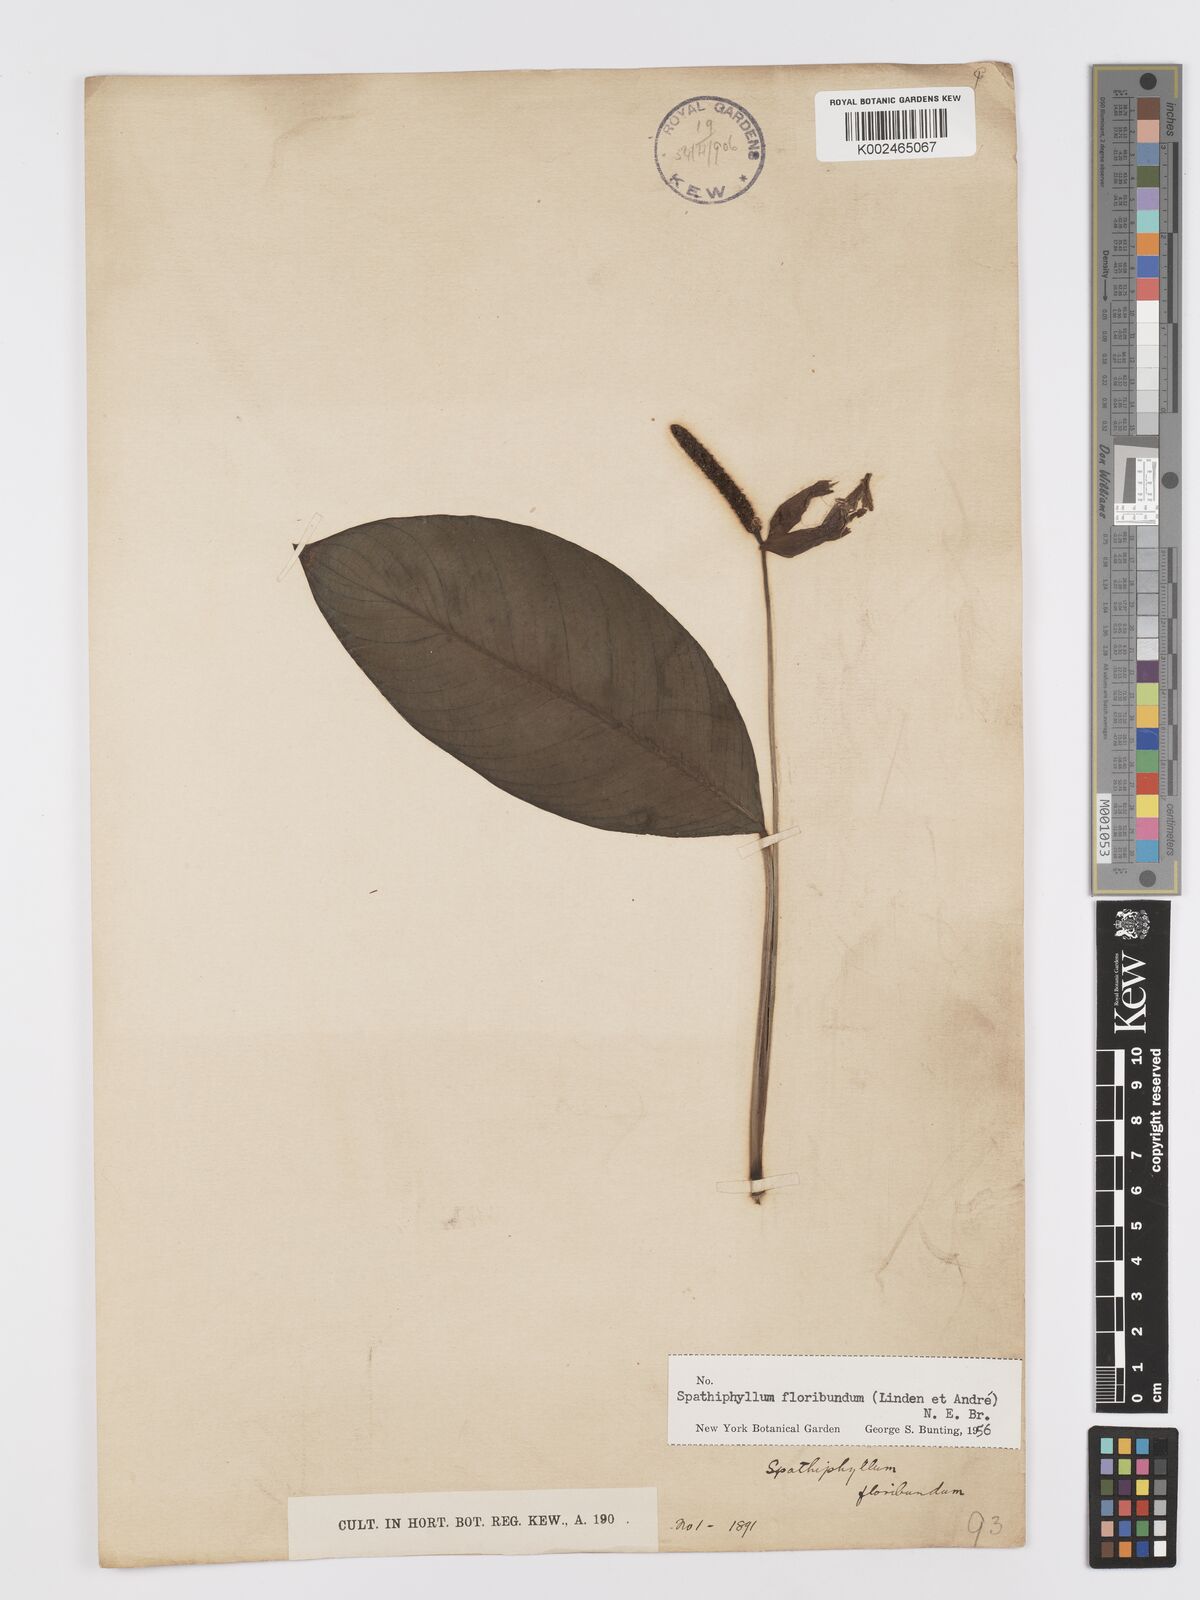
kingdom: Plantae
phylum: Tracheophyta
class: Liliopsida
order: Alismatales
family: Araceae
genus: Spathiphyllum
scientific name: Spathiphyllum floribundum
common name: Peace-lily
